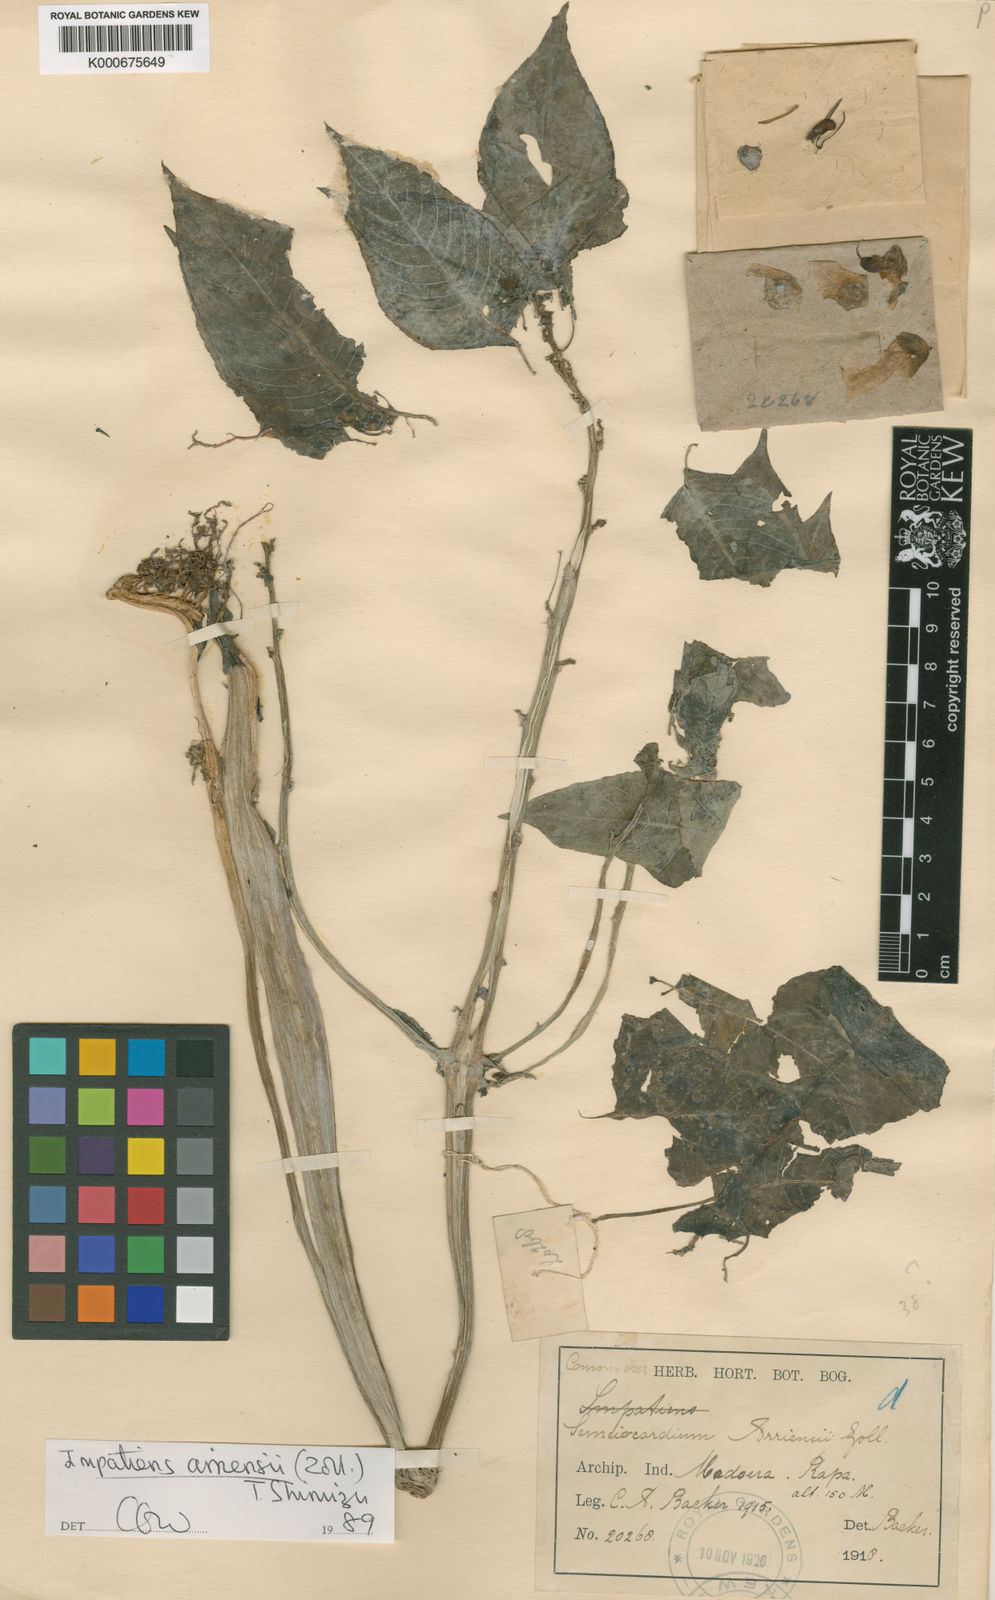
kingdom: Plantae
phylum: Tracheophyta
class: Magnoliopsida
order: Ericales
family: Balsaminaceae
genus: Impatiens
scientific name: Impatiens arriensii
